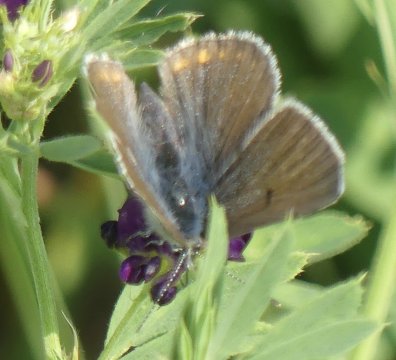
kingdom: Animalia
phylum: Arthropoda
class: Insecta
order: Lepidoptera
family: Lycaenidae
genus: Plebejus
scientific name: Plebejus saepiolus
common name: Greenish Blue
